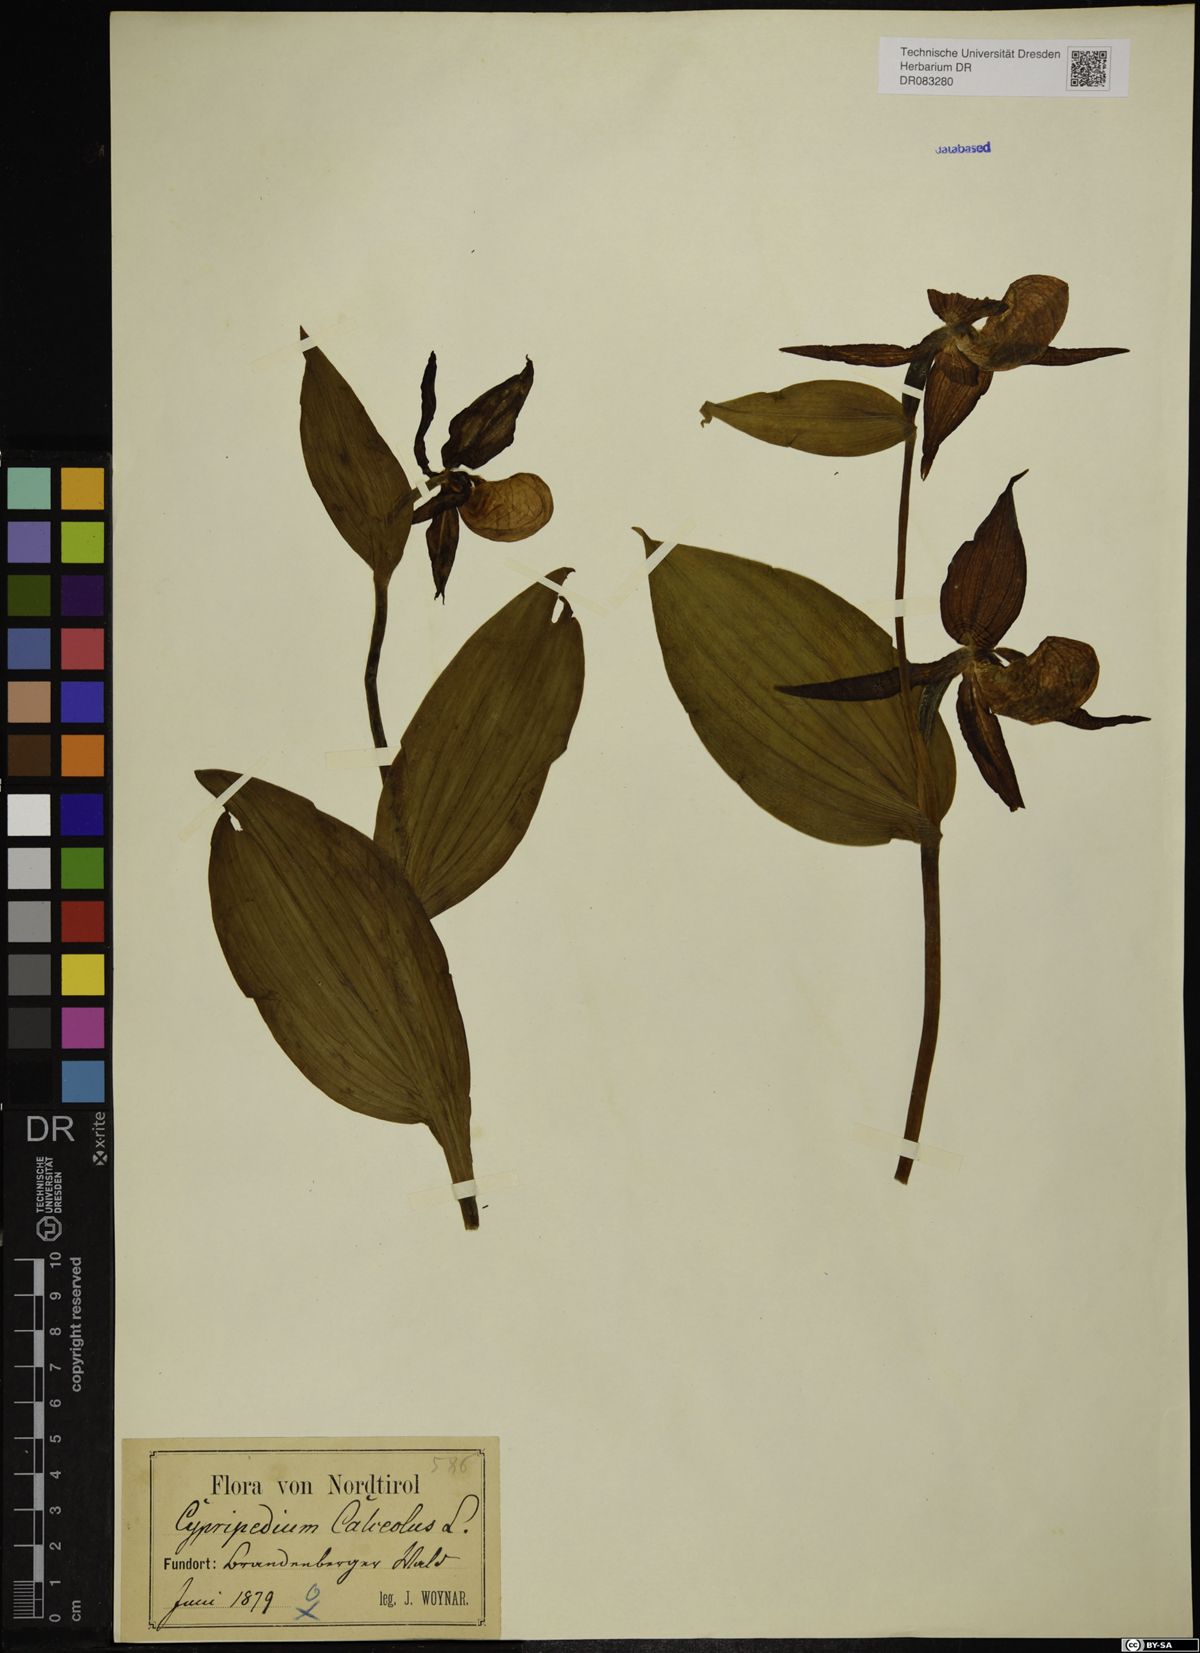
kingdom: Plantae
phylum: Tracheophyta
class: Liliopsida
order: Asparagales
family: Orchidaceae
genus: Cypripedium
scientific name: Cypripedium calceolus
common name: Lady's-slipper
